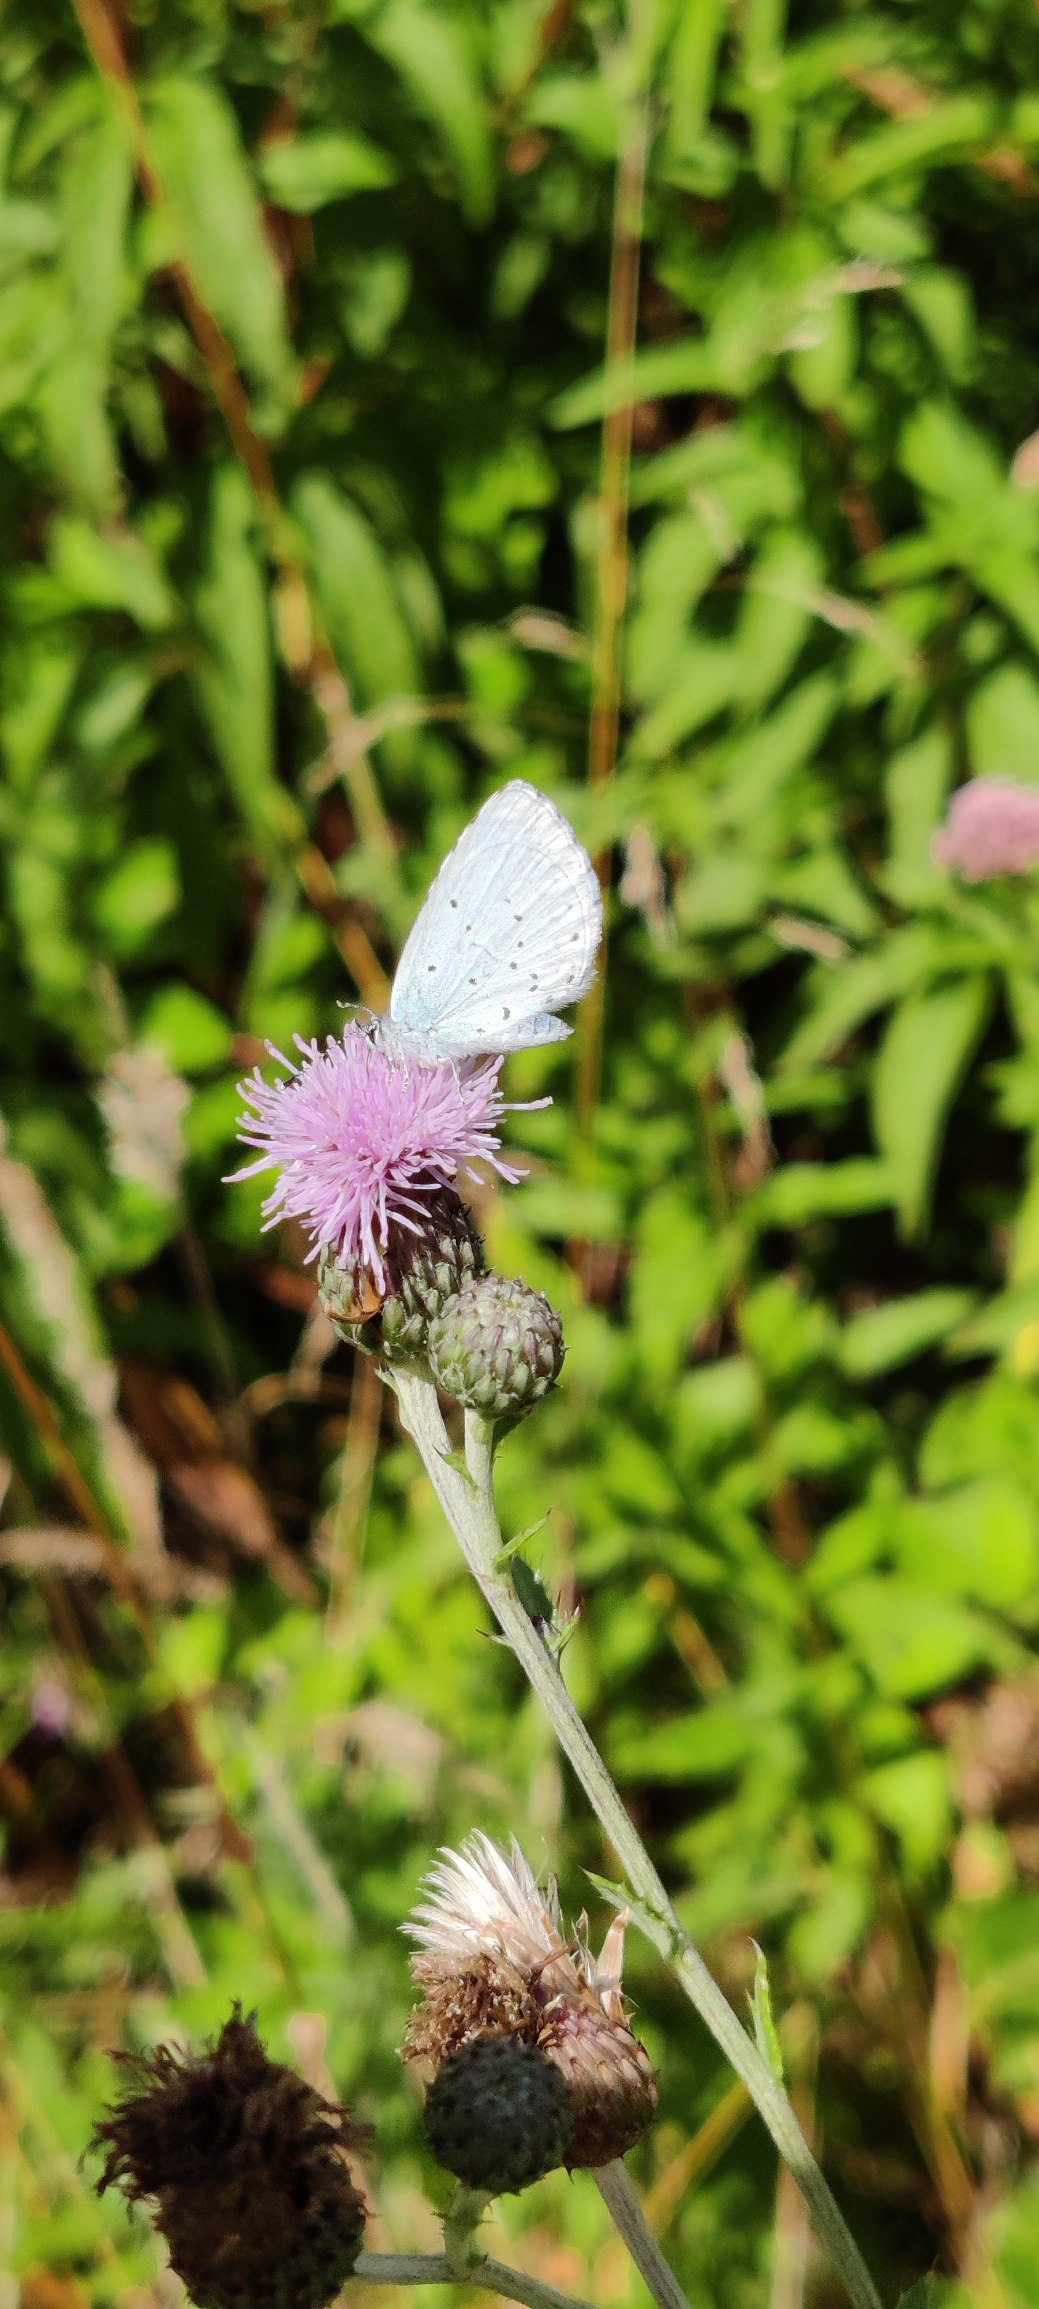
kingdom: Animalia
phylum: Arthropoda
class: Insecta
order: Lepidoptera
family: Lycaenidae
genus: Celastrina
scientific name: Celastrina argiolus
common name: Skovblåfugl
